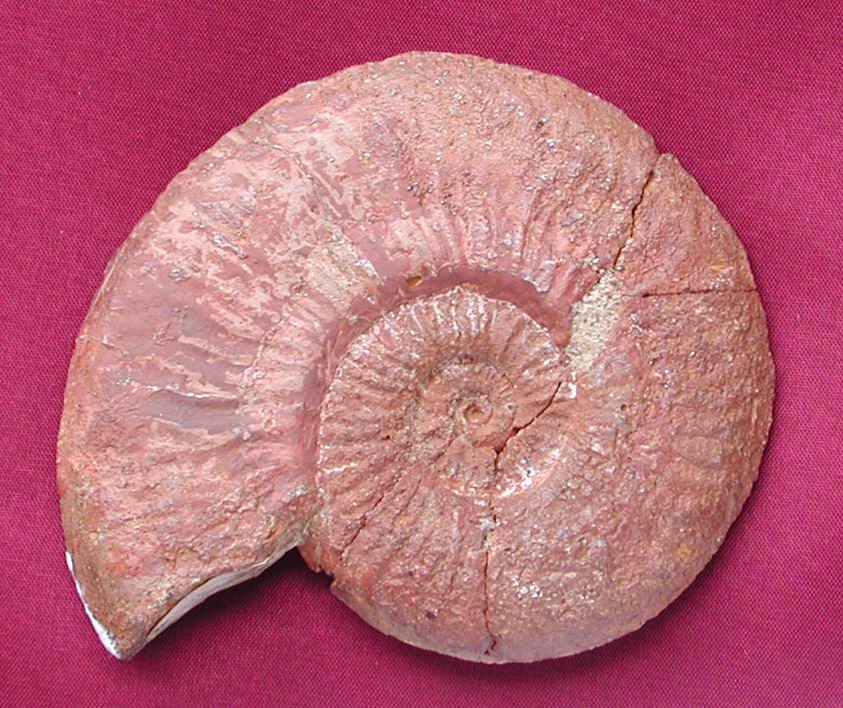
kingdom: Animalia
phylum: Mollusca
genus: Walkericeras
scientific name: Walkericeras
